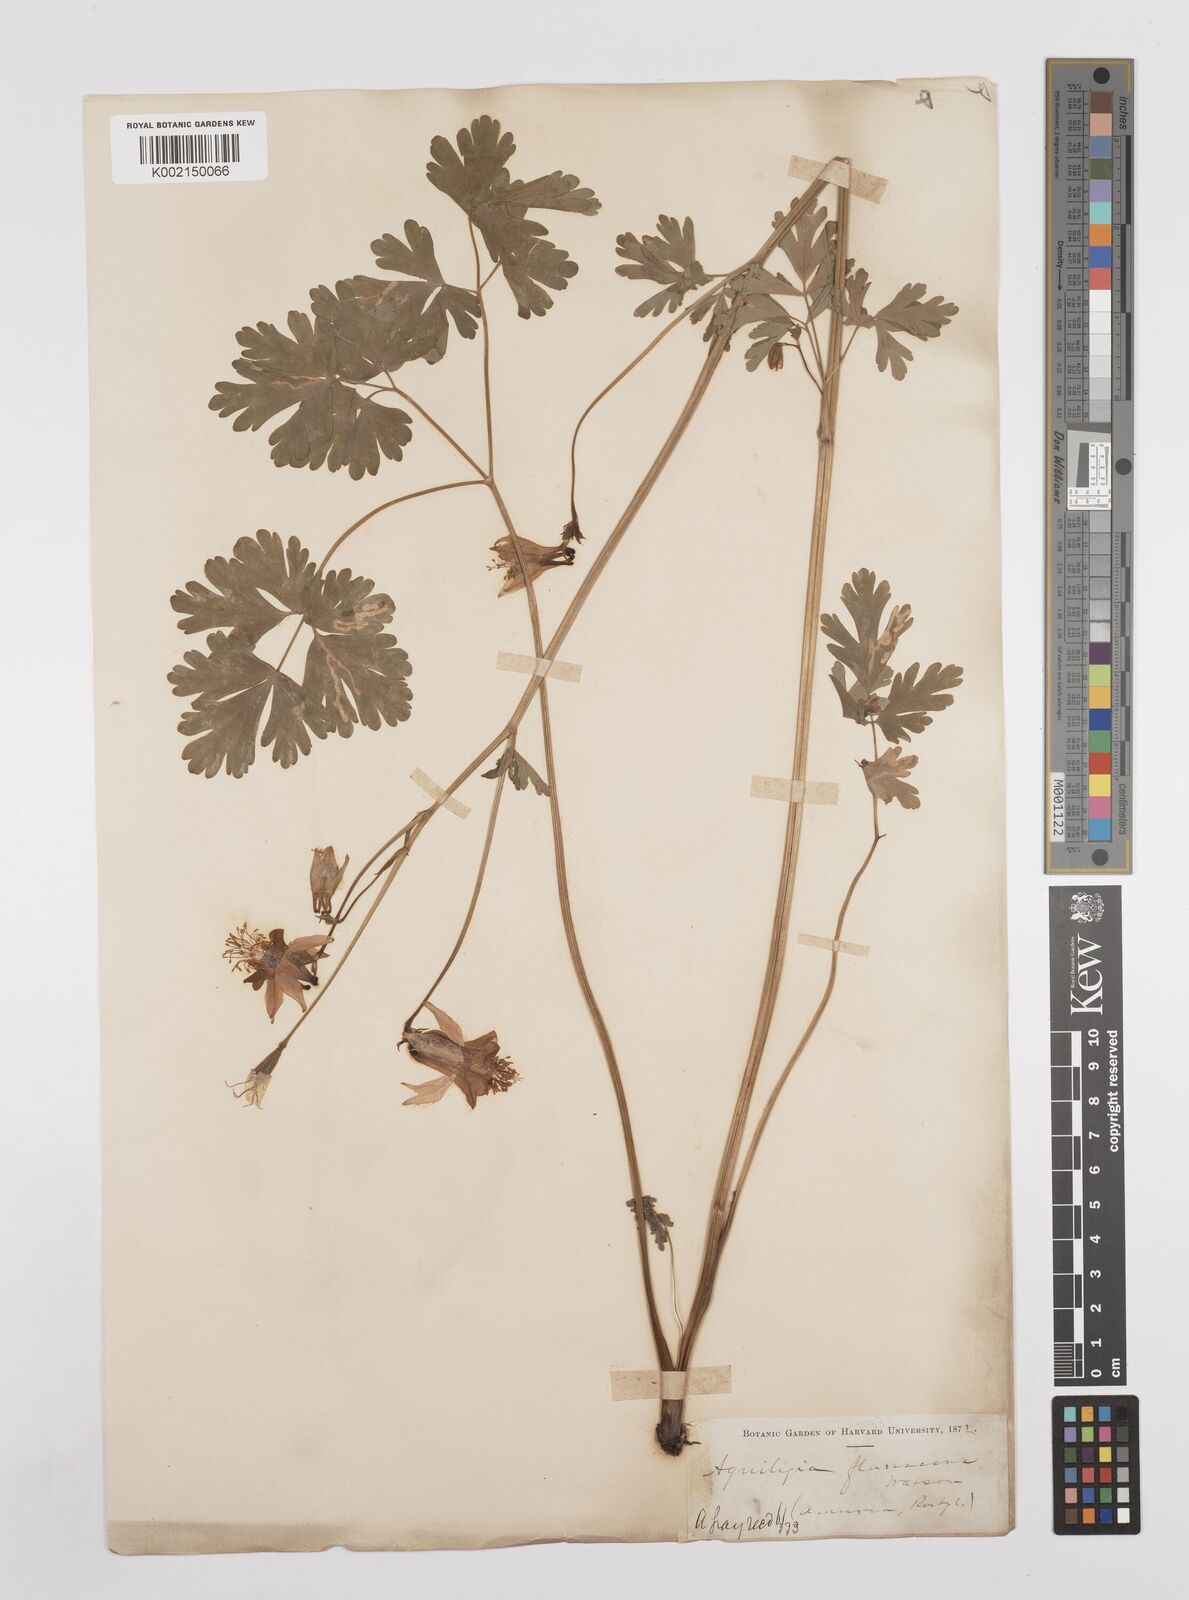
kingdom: Plantae
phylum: Tracheophyta
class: Magnoliopsida
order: Ranunculales
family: Ranunculaceae
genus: Aquilegia
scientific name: Aquilegia flavescens
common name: Yellow columbine
